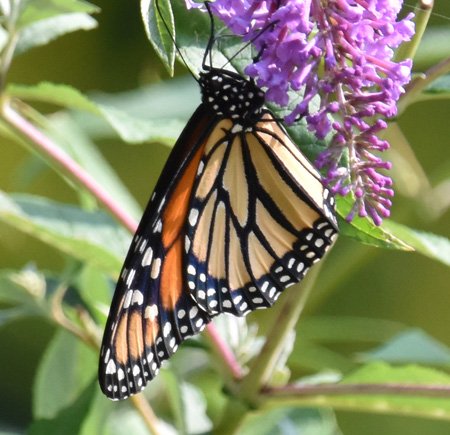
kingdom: Animalia
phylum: Arthropoda
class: Insecta
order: Lepidoptera
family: Nymphalidae
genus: Danaus
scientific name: Danaus plexippus
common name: Monarch
